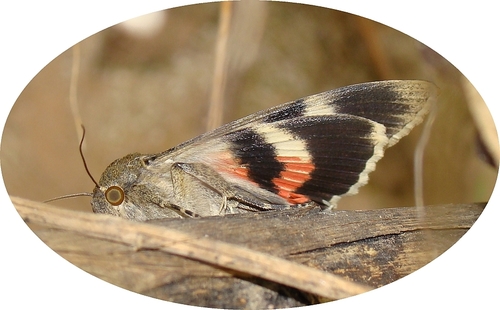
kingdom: Animalia
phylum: Arthropoda
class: Insecta
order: Lepidoptera
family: Erebidae
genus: Catocala
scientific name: Catocala elocata
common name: French red underwing
